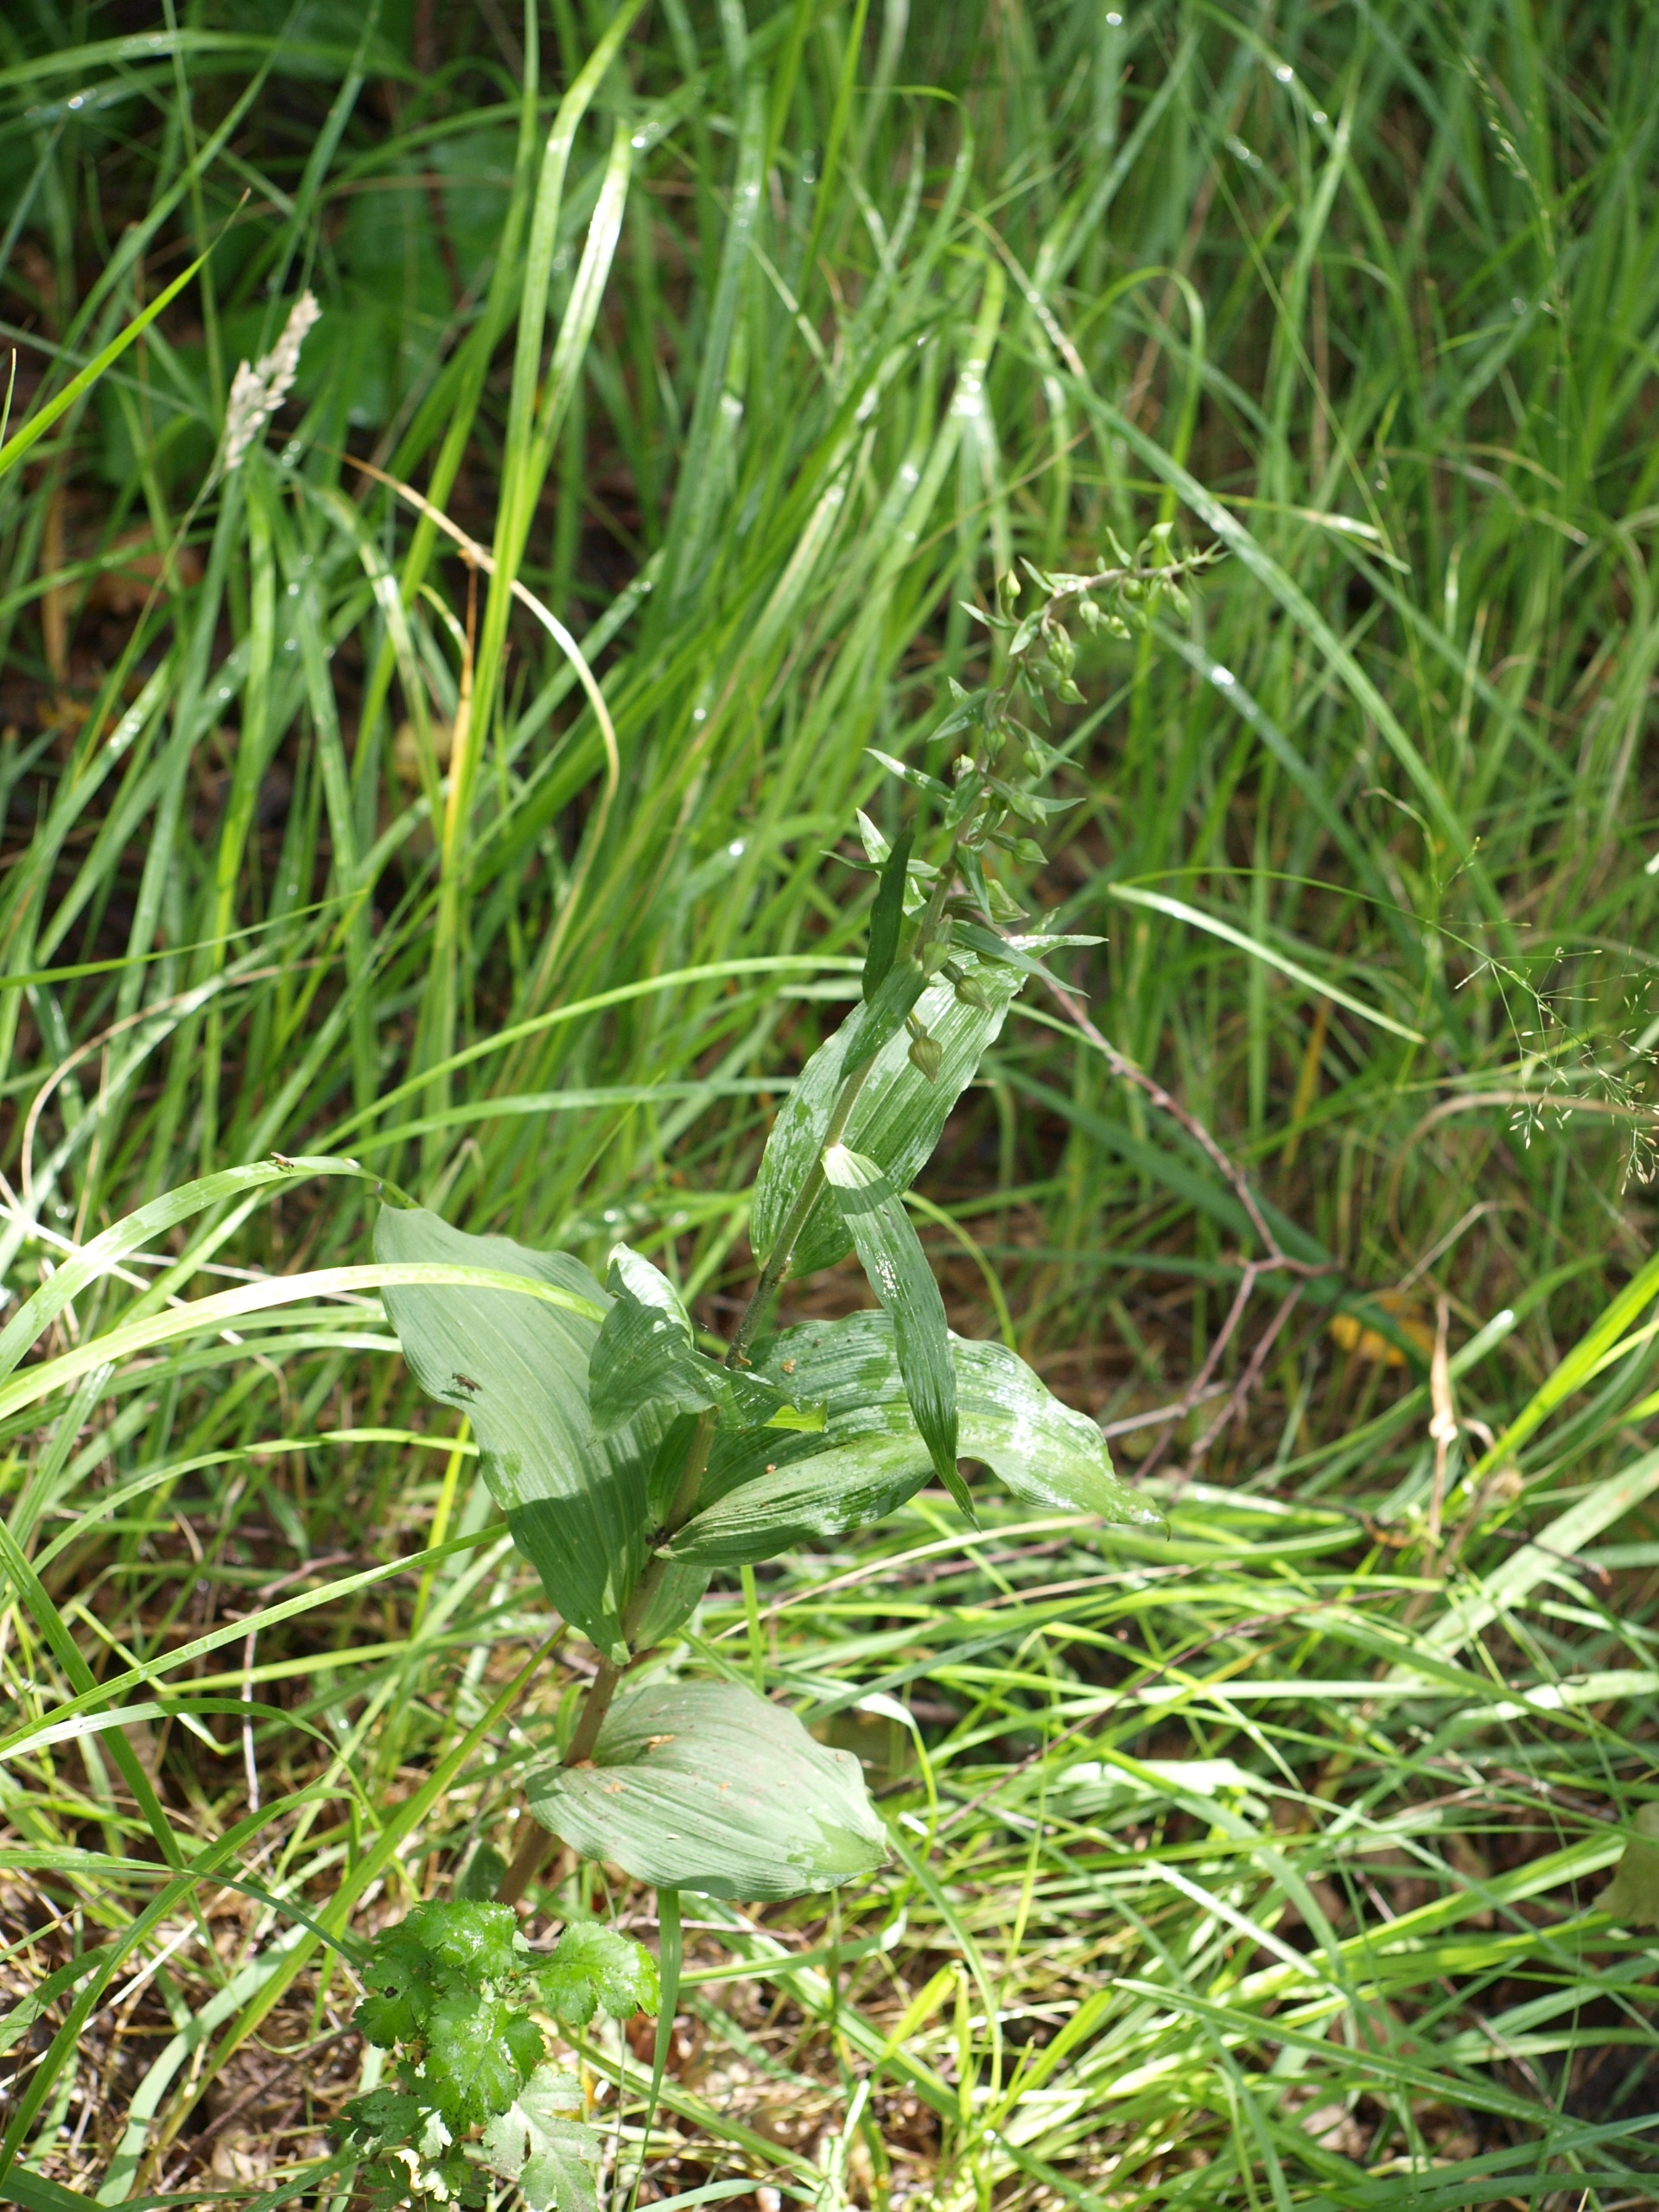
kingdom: Plantae
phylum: Tracheophyta
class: Liliopsida
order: Asparagales
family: Orchidaceae
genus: Epipactis
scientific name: Epipactis helleborine
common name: Skov-hullæbe
